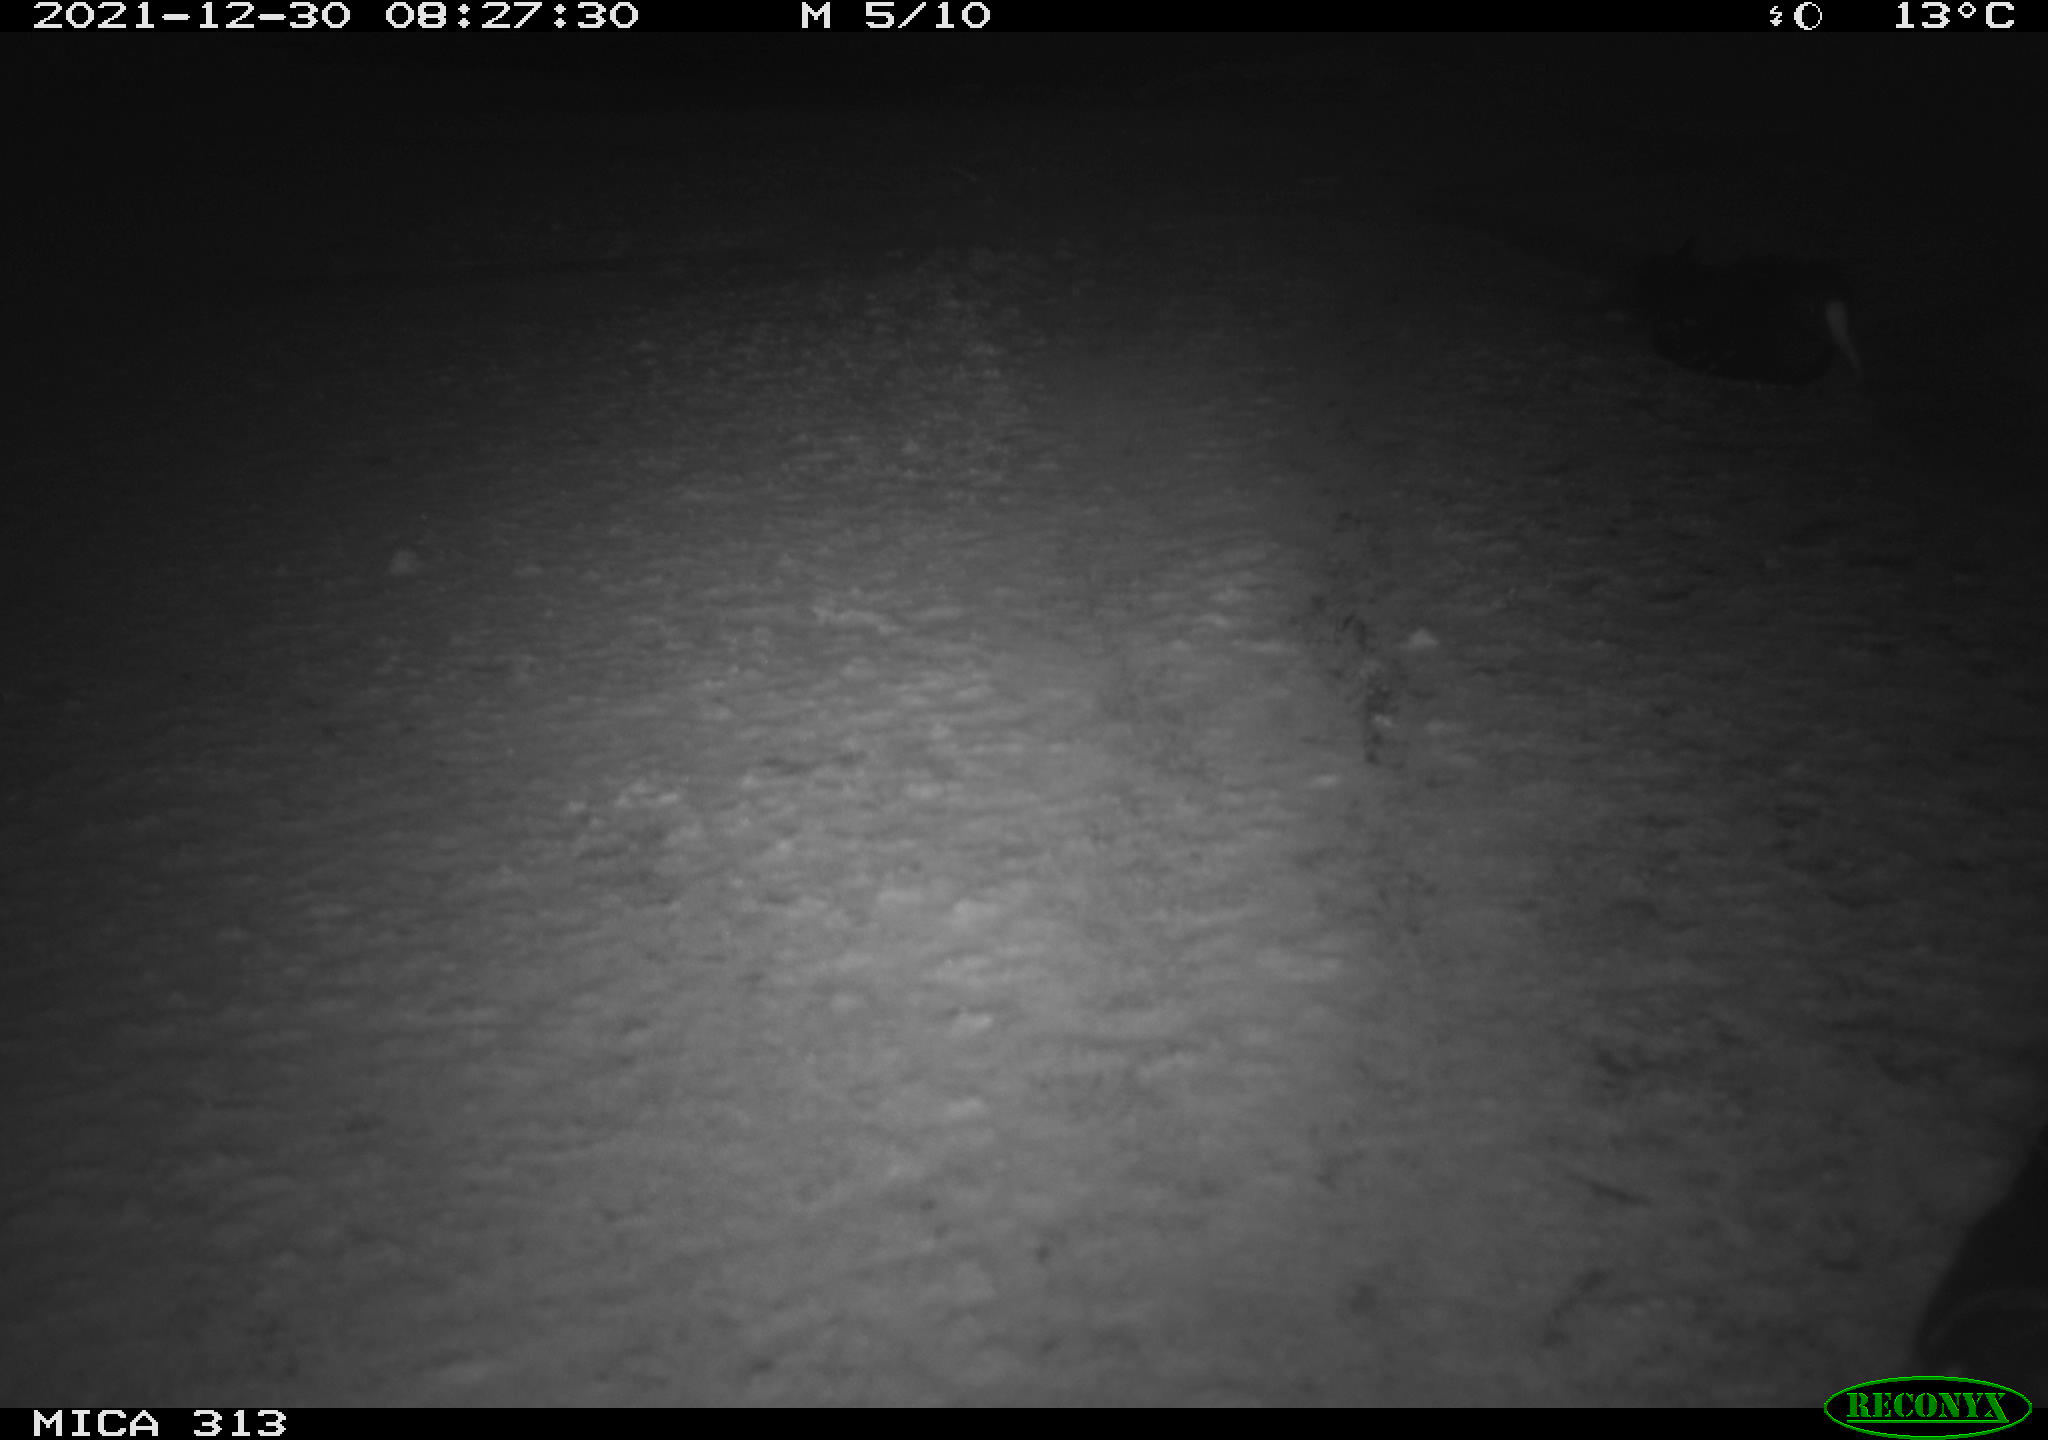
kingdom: Animalia
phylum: Chordata
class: Aves
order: Gruiformes
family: Rallidae
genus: Gallinula
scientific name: Gallinula chloropus
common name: Common moorhen
